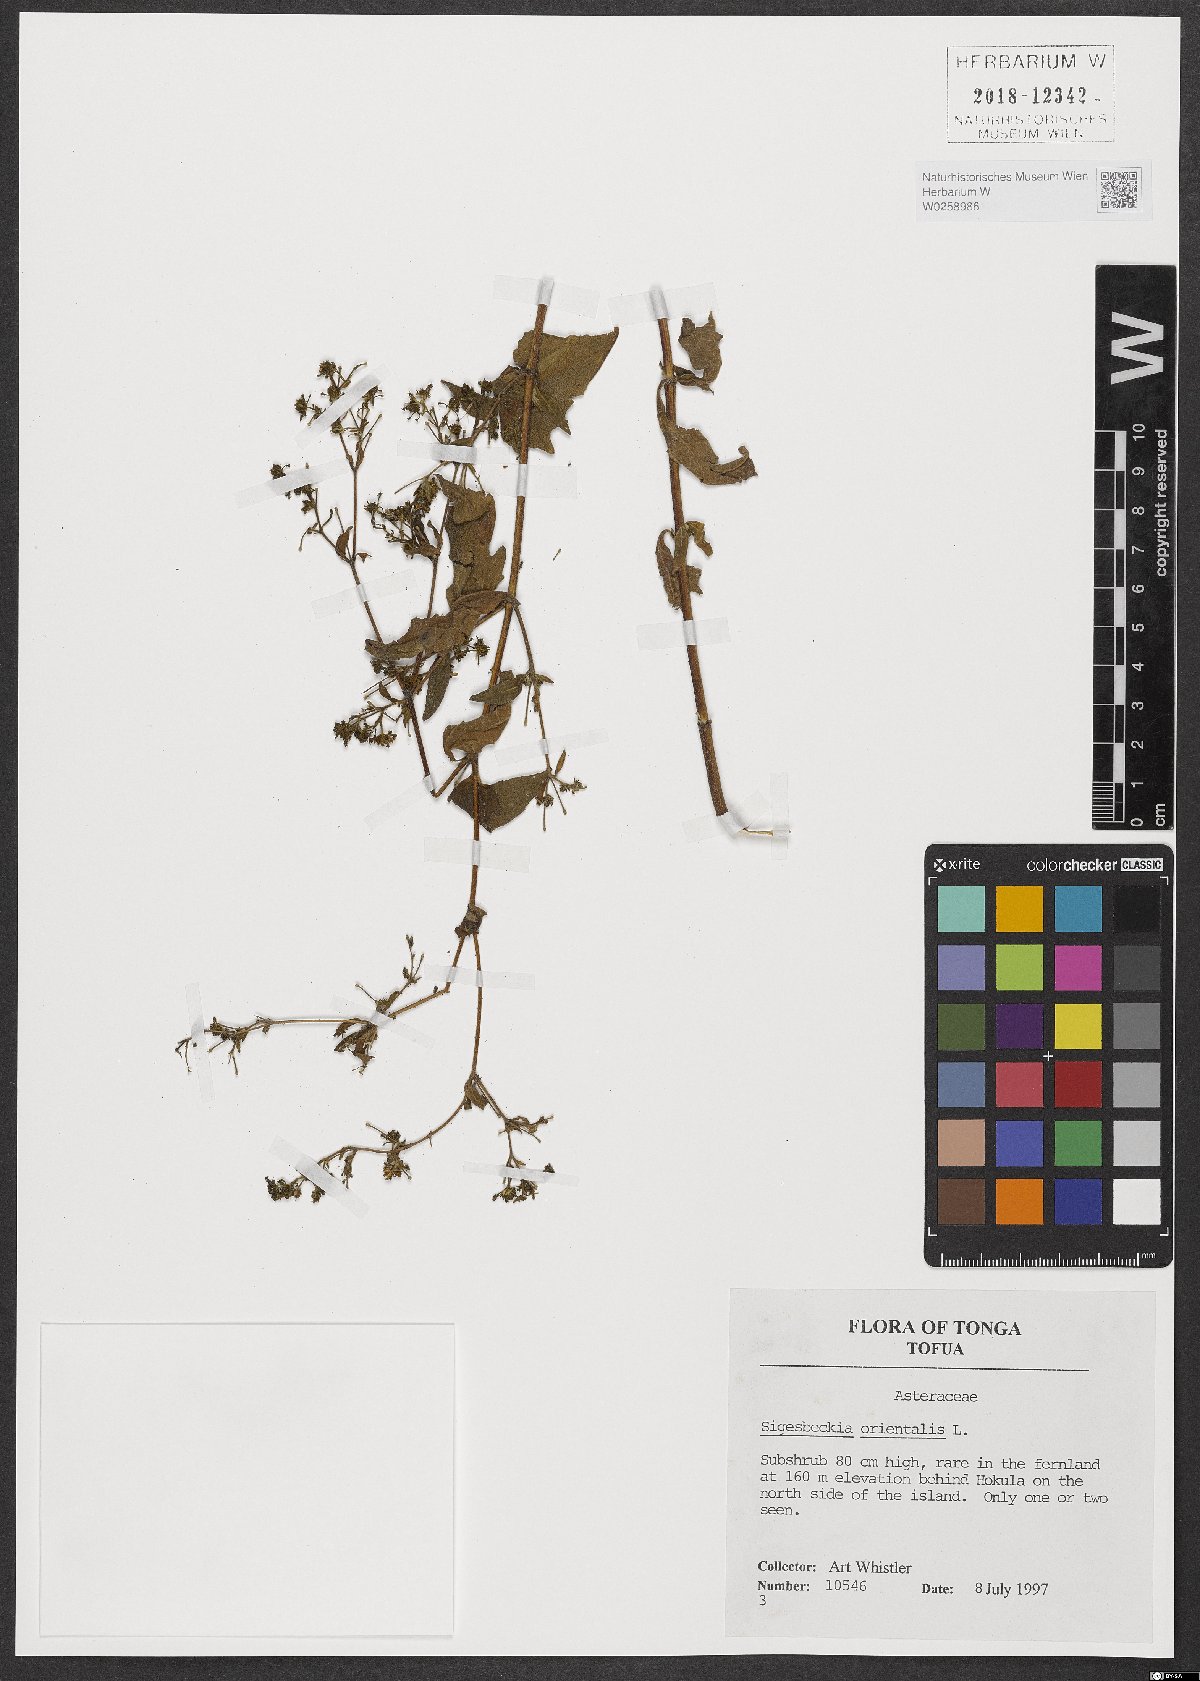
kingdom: Plantae
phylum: Tracheophyta
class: Magnoliopsida
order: Asterales
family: Asteraceae
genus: Sigesbeckia
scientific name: Sigesbeckia orientalis
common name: Eastern st paul's-wort
